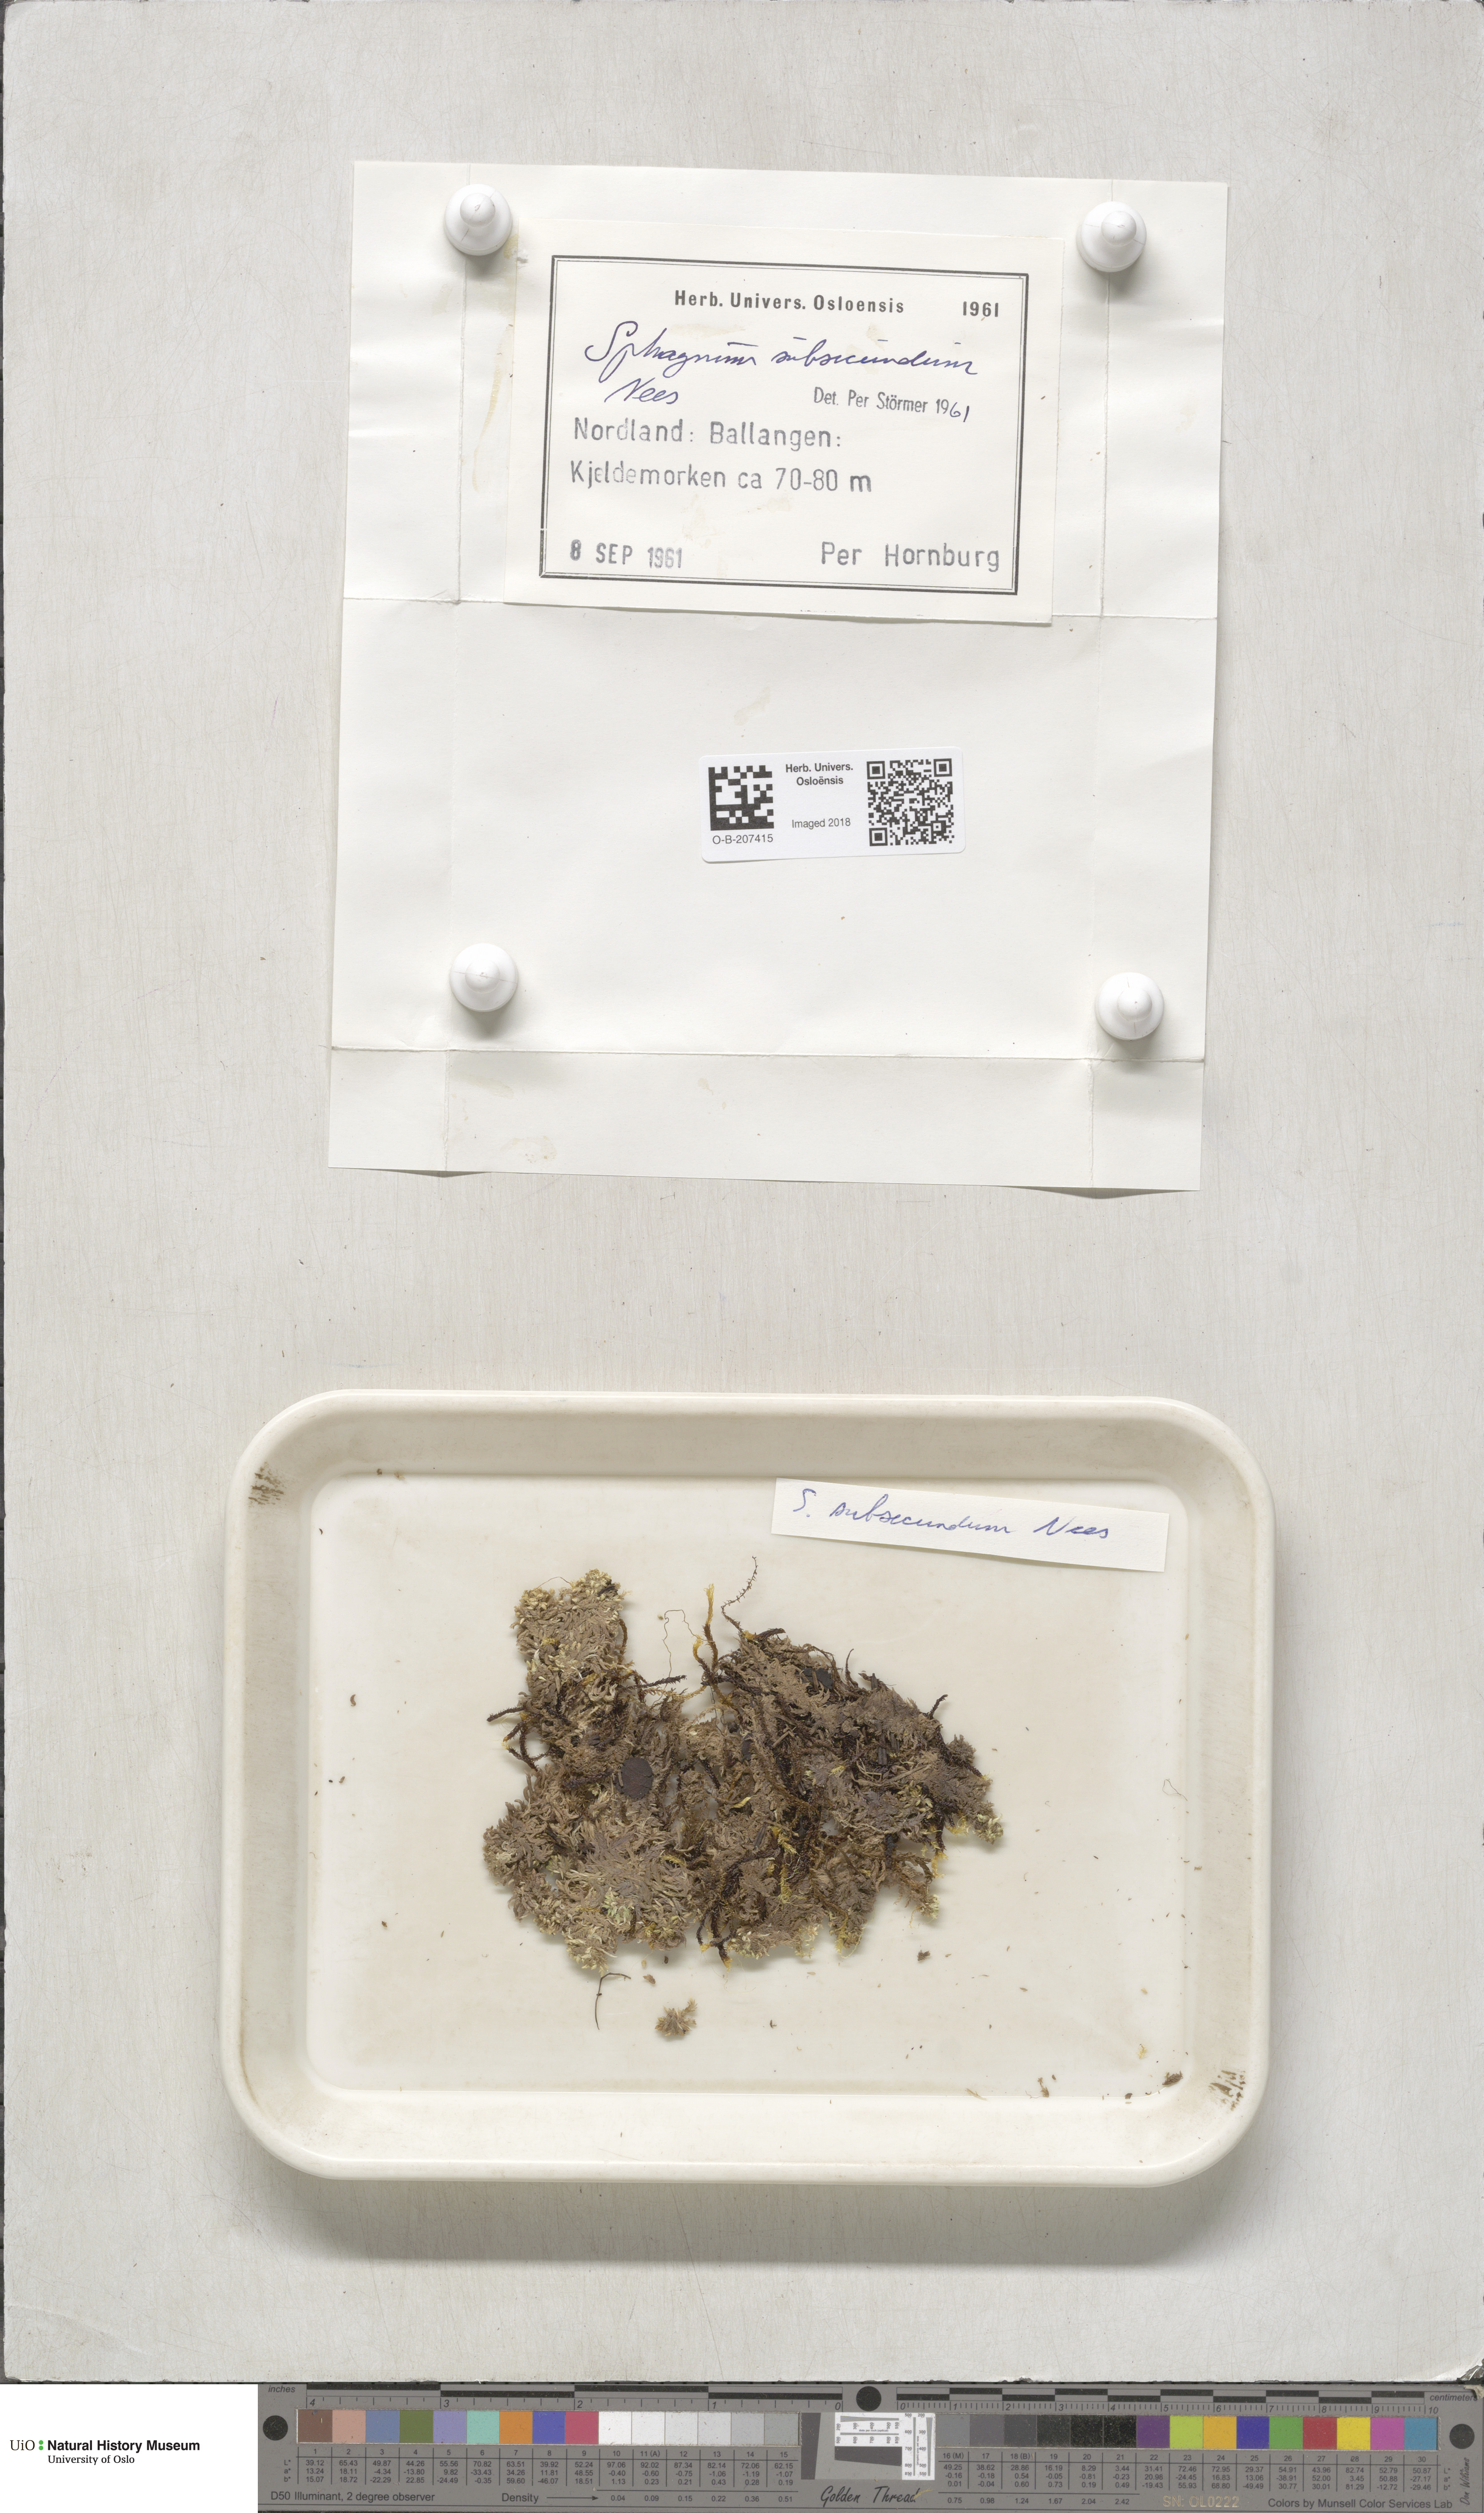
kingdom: Plantae
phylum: Bryophyta
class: Sphagnopsida
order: Sphagnales
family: Sphagnaceae
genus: Sphagnum
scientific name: Sphagnum subsecundum
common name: Orange peat moss
